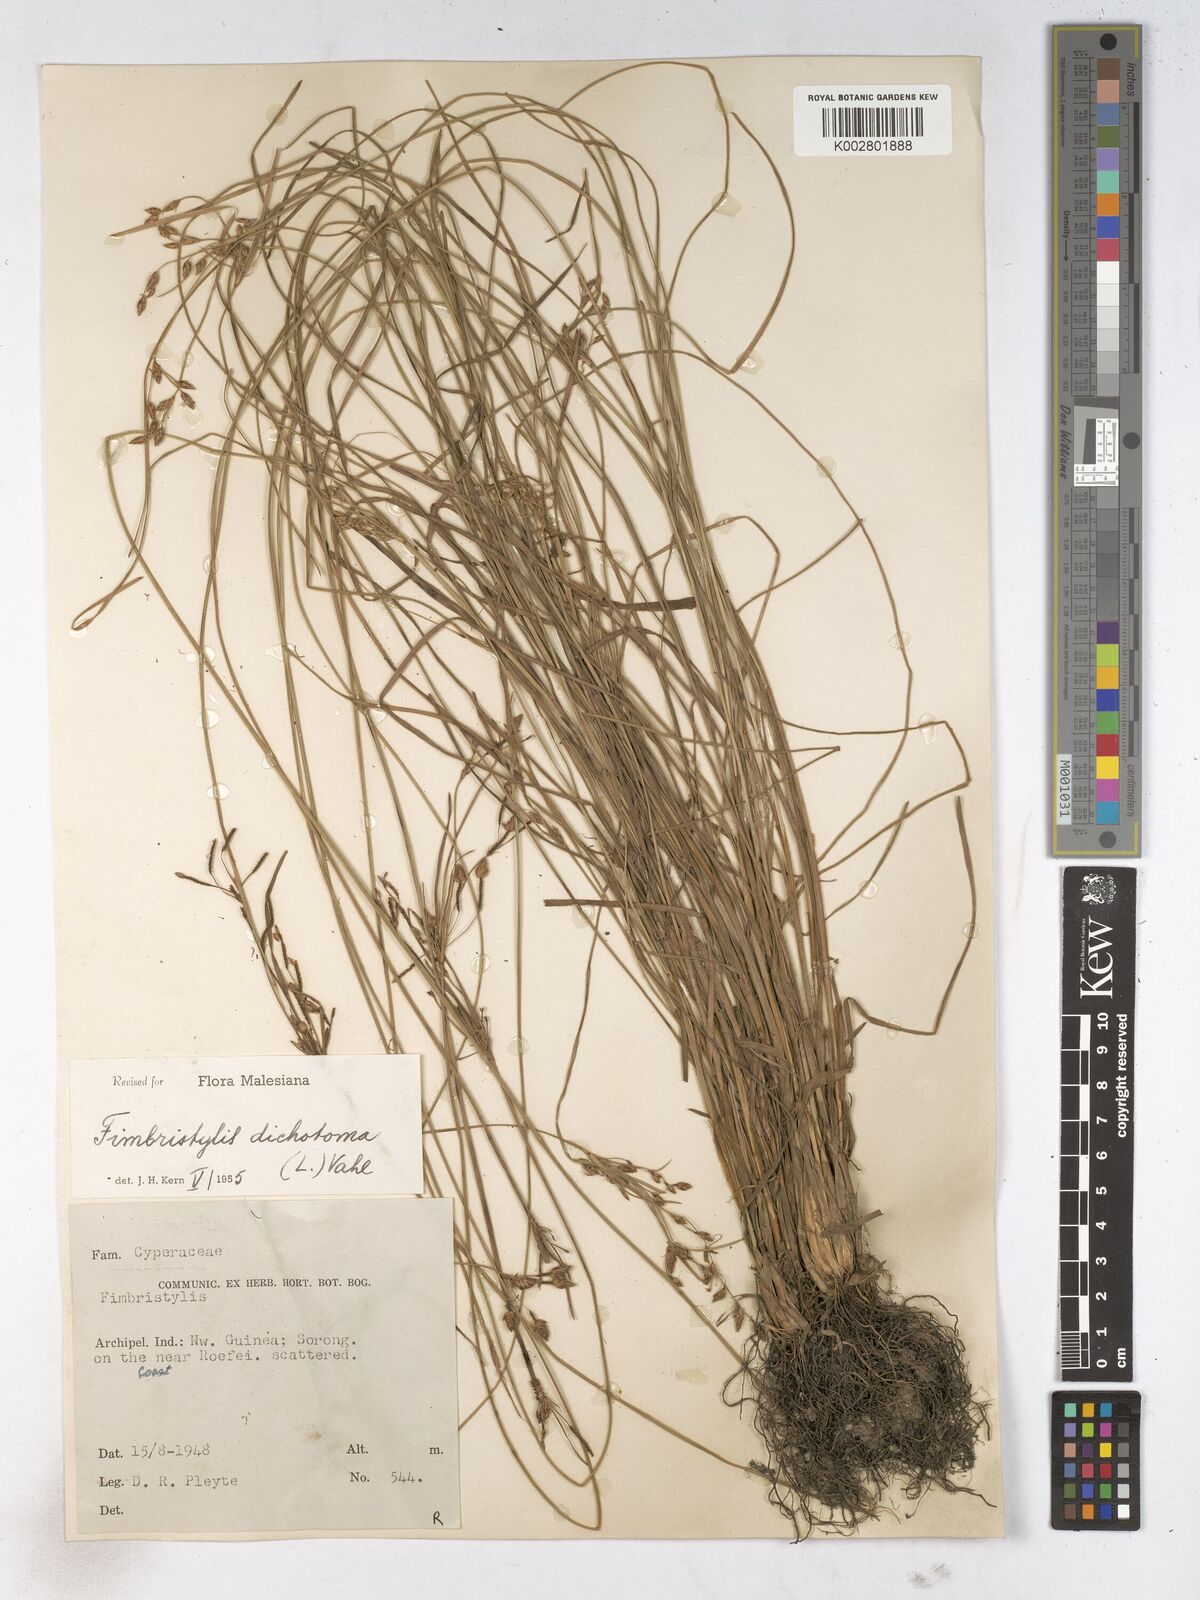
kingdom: Plantae
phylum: Tracheophyta
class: Liliopsida
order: Poales
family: Cyperaceae
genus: Fimbristylis
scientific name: Fimbristylis dichotoma
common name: Forked fimbry
